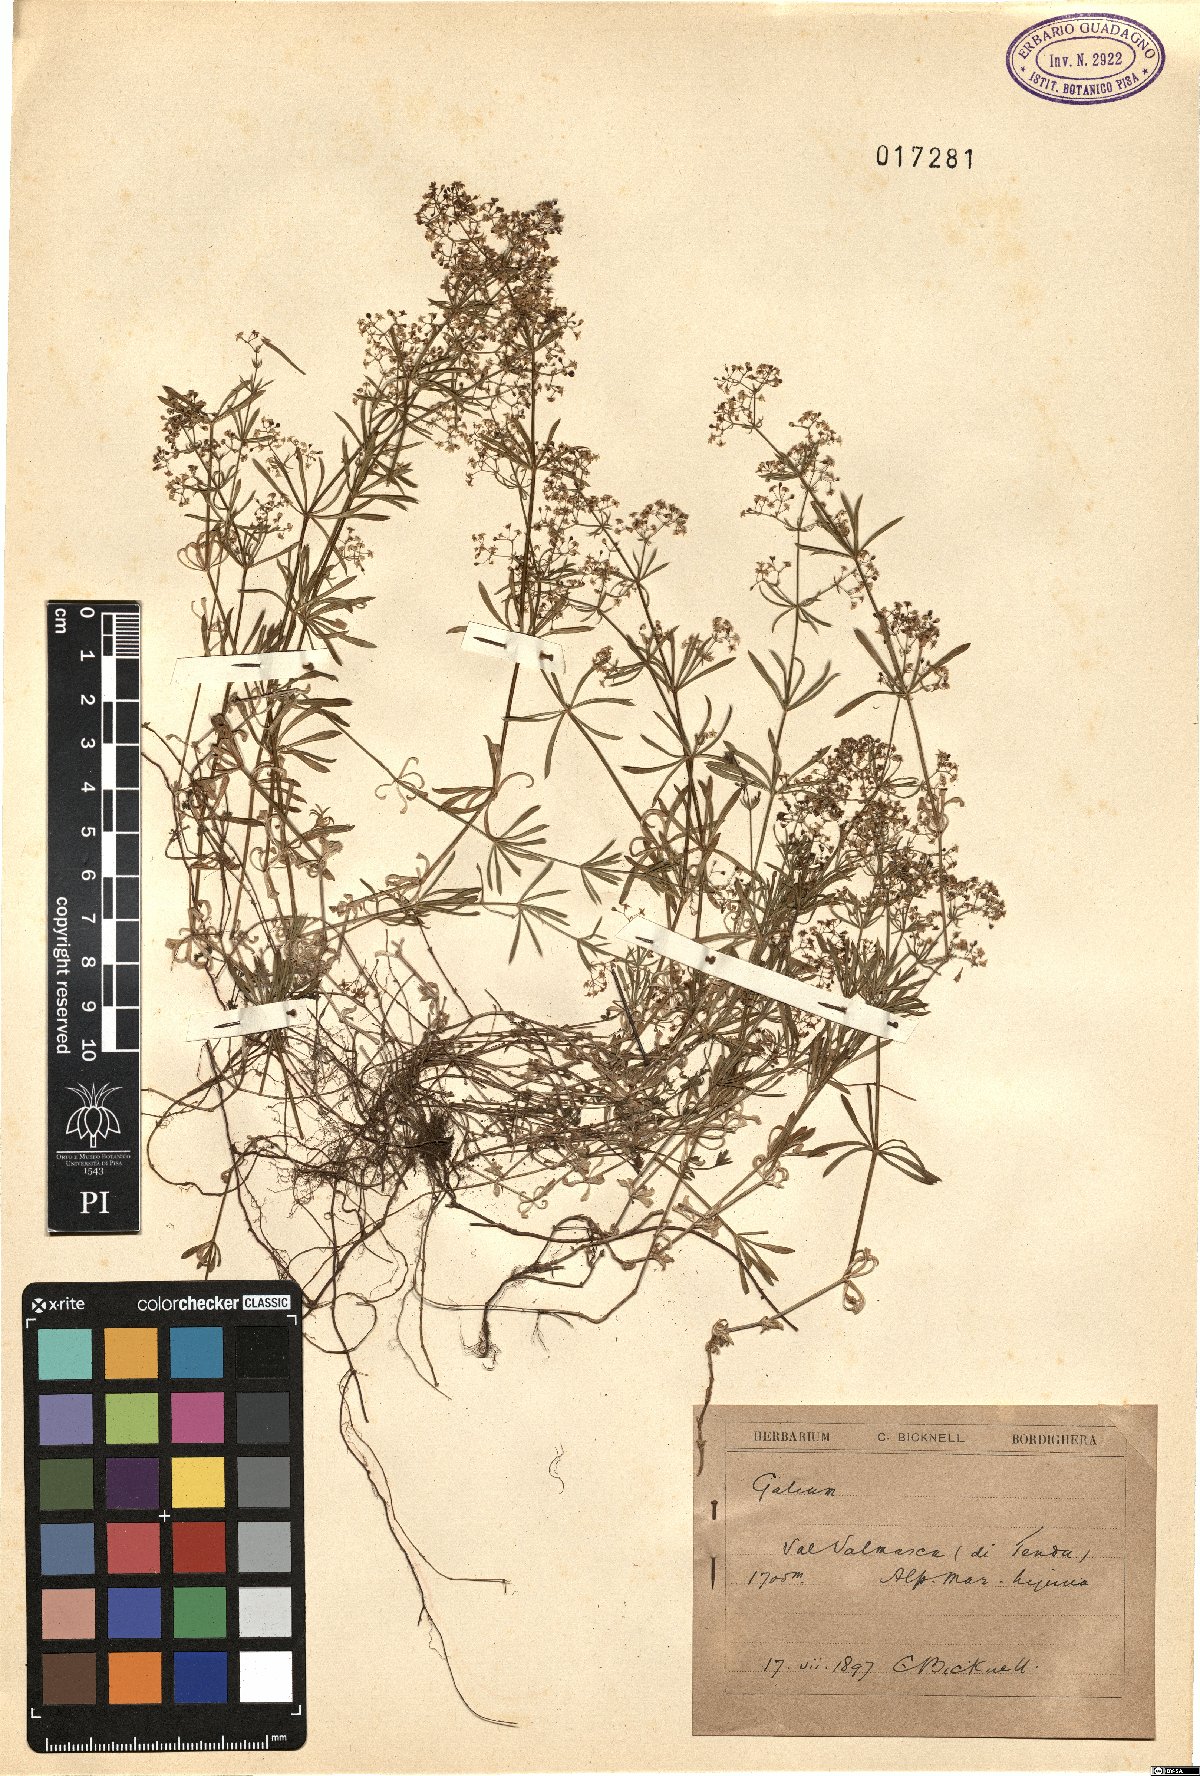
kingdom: Plantae
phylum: Tracheophyta
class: Magnoliopsida
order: Gentianales
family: Rubiaceae
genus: Galium
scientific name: Galium
